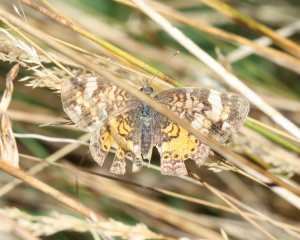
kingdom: Animalia
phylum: Arthropoda
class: Insecta
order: Lepidoptera
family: Nymphalidae
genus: Phyciodes
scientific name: Phyciodes tharos
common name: Northern Crescent
